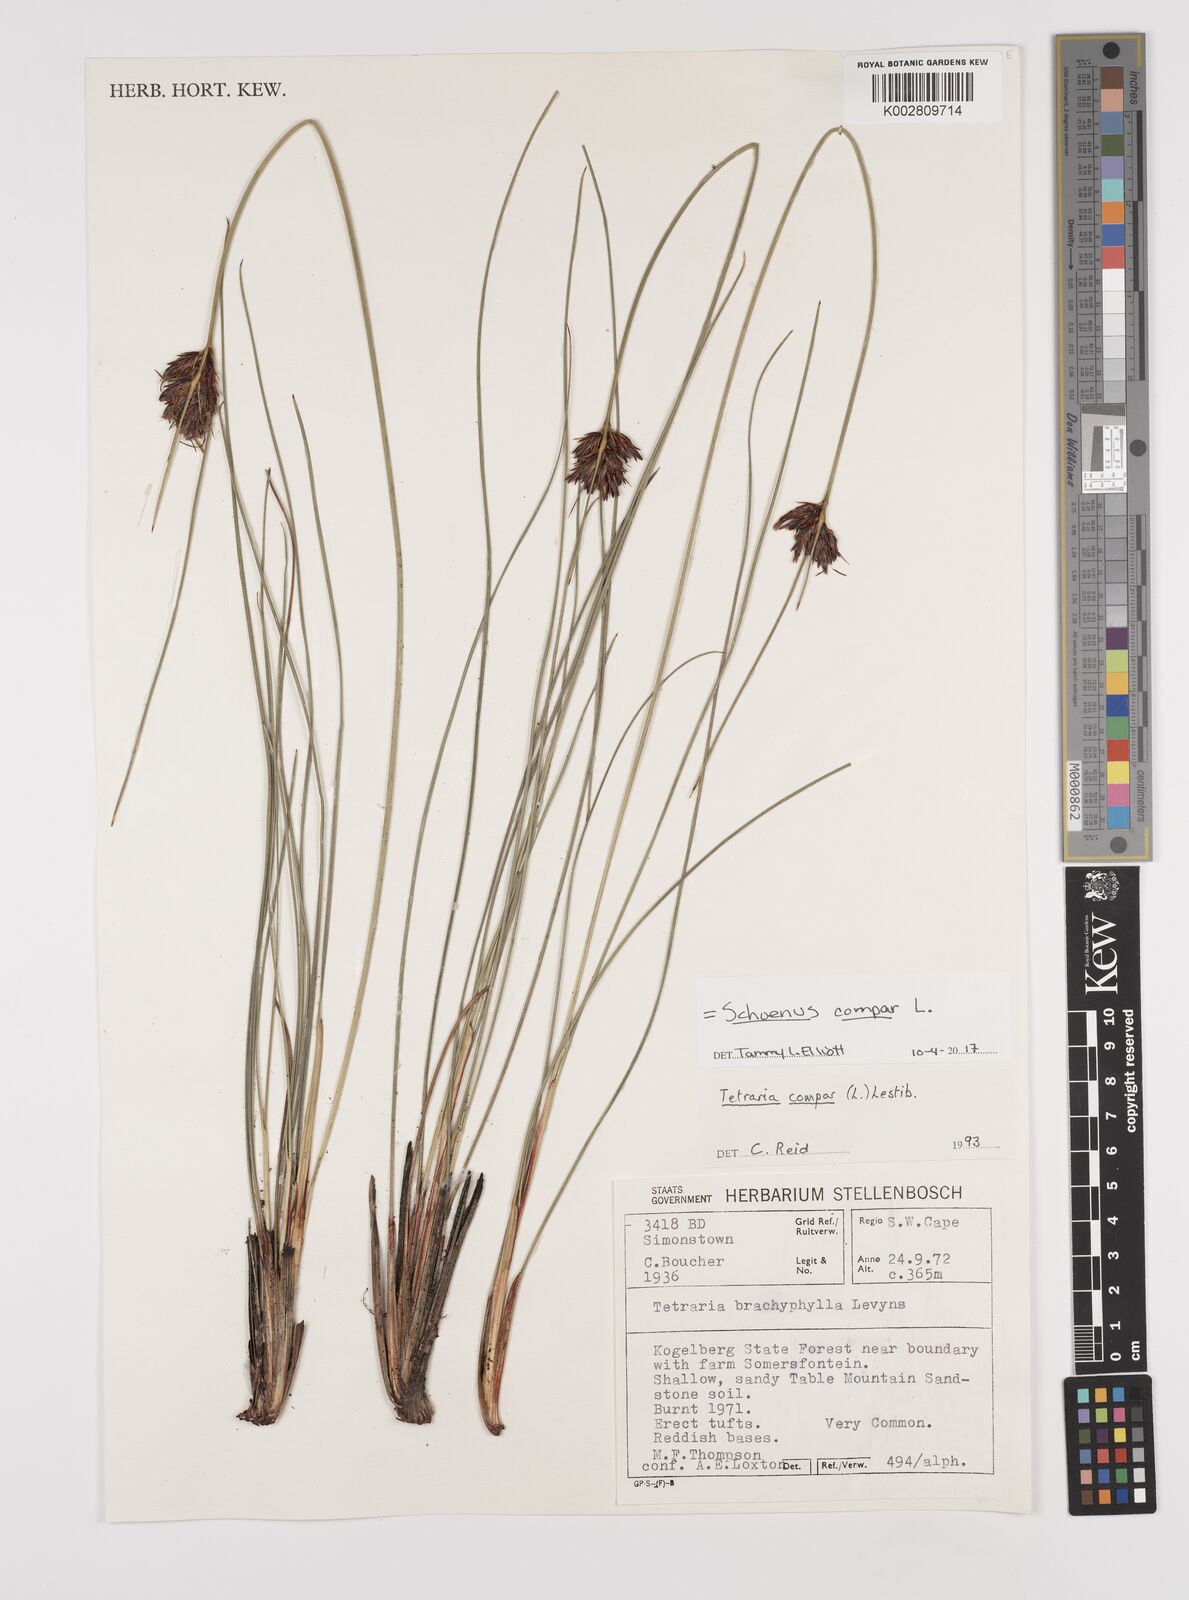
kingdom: Plantae
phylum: Tracheophyta
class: Liliopsida
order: Poales
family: Cyperaceae
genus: Schoenus
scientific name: Schoenus compar
